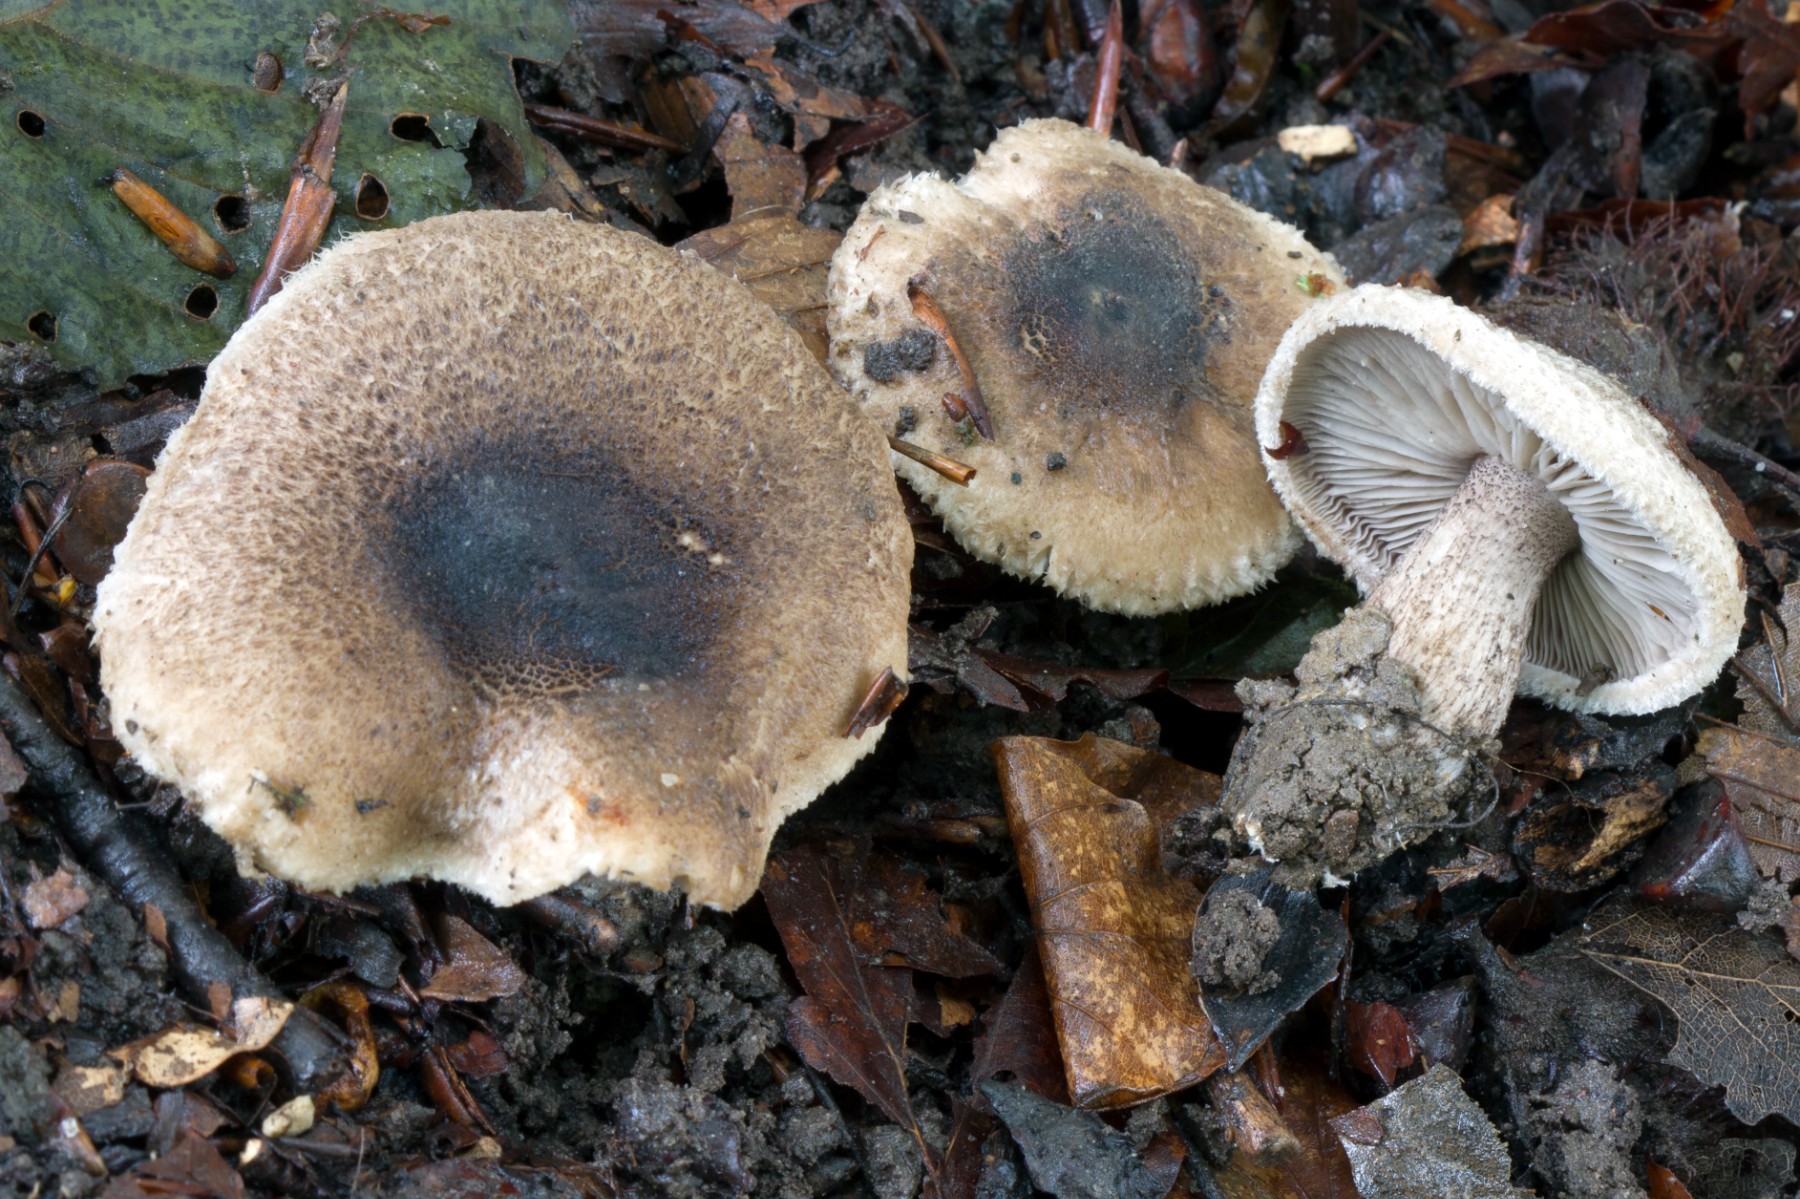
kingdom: Fungi
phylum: Basidiomycota
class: Agaricomycetes
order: Agaricales
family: Tricholomataceae
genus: Tricholoma
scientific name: Tricholoma atrosquamosum
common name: sortskællet ridderhat
